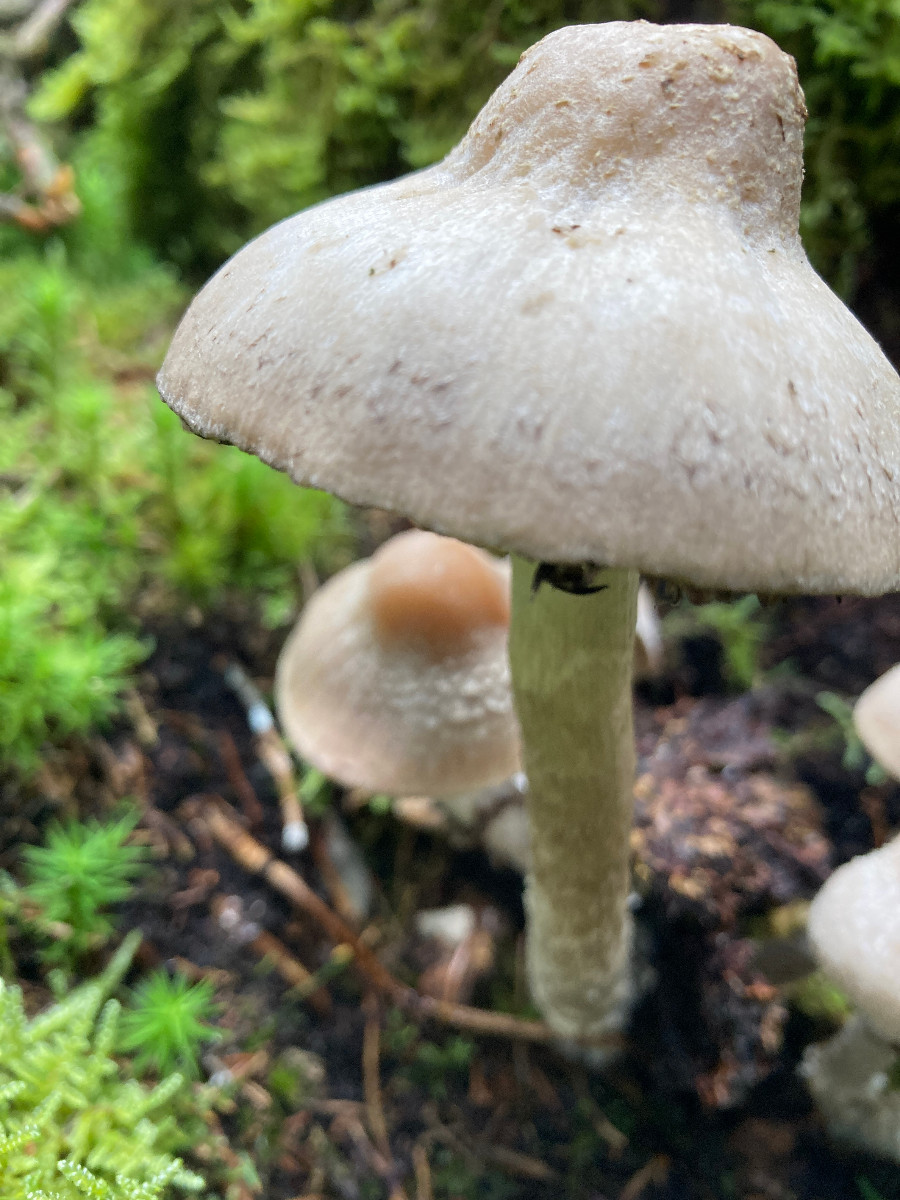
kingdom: Fungi
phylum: Basidiomycota
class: Agaricomycetes
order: Agaricales
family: Psathyrellaceae
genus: Psathyrella
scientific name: Psathyrella caput-medusae
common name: medusa-mørkhat
